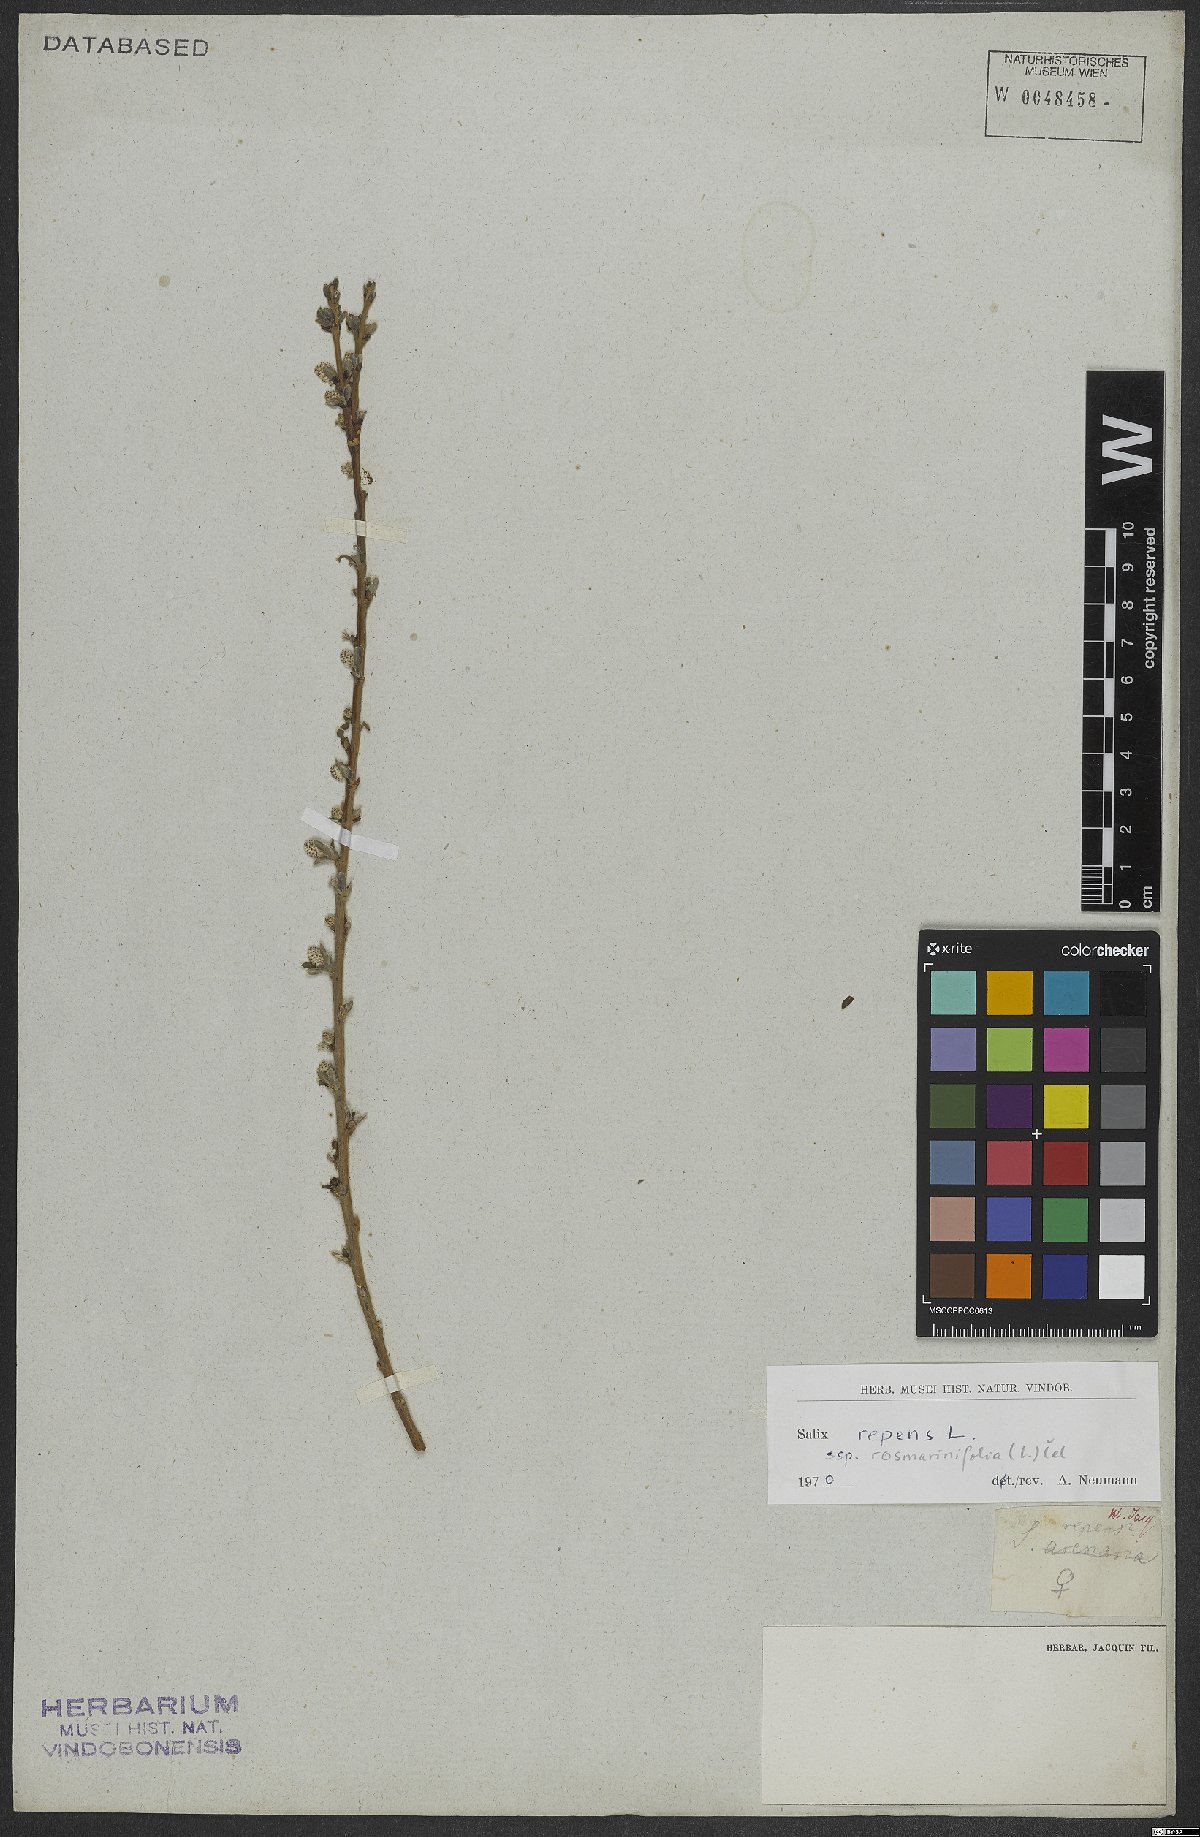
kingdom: Plantae
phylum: Tracheophyta
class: Magnoliopsida
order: Malpighiales
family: Salicaceae
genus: Salix
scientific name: Salix repens
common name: Creeping willow
